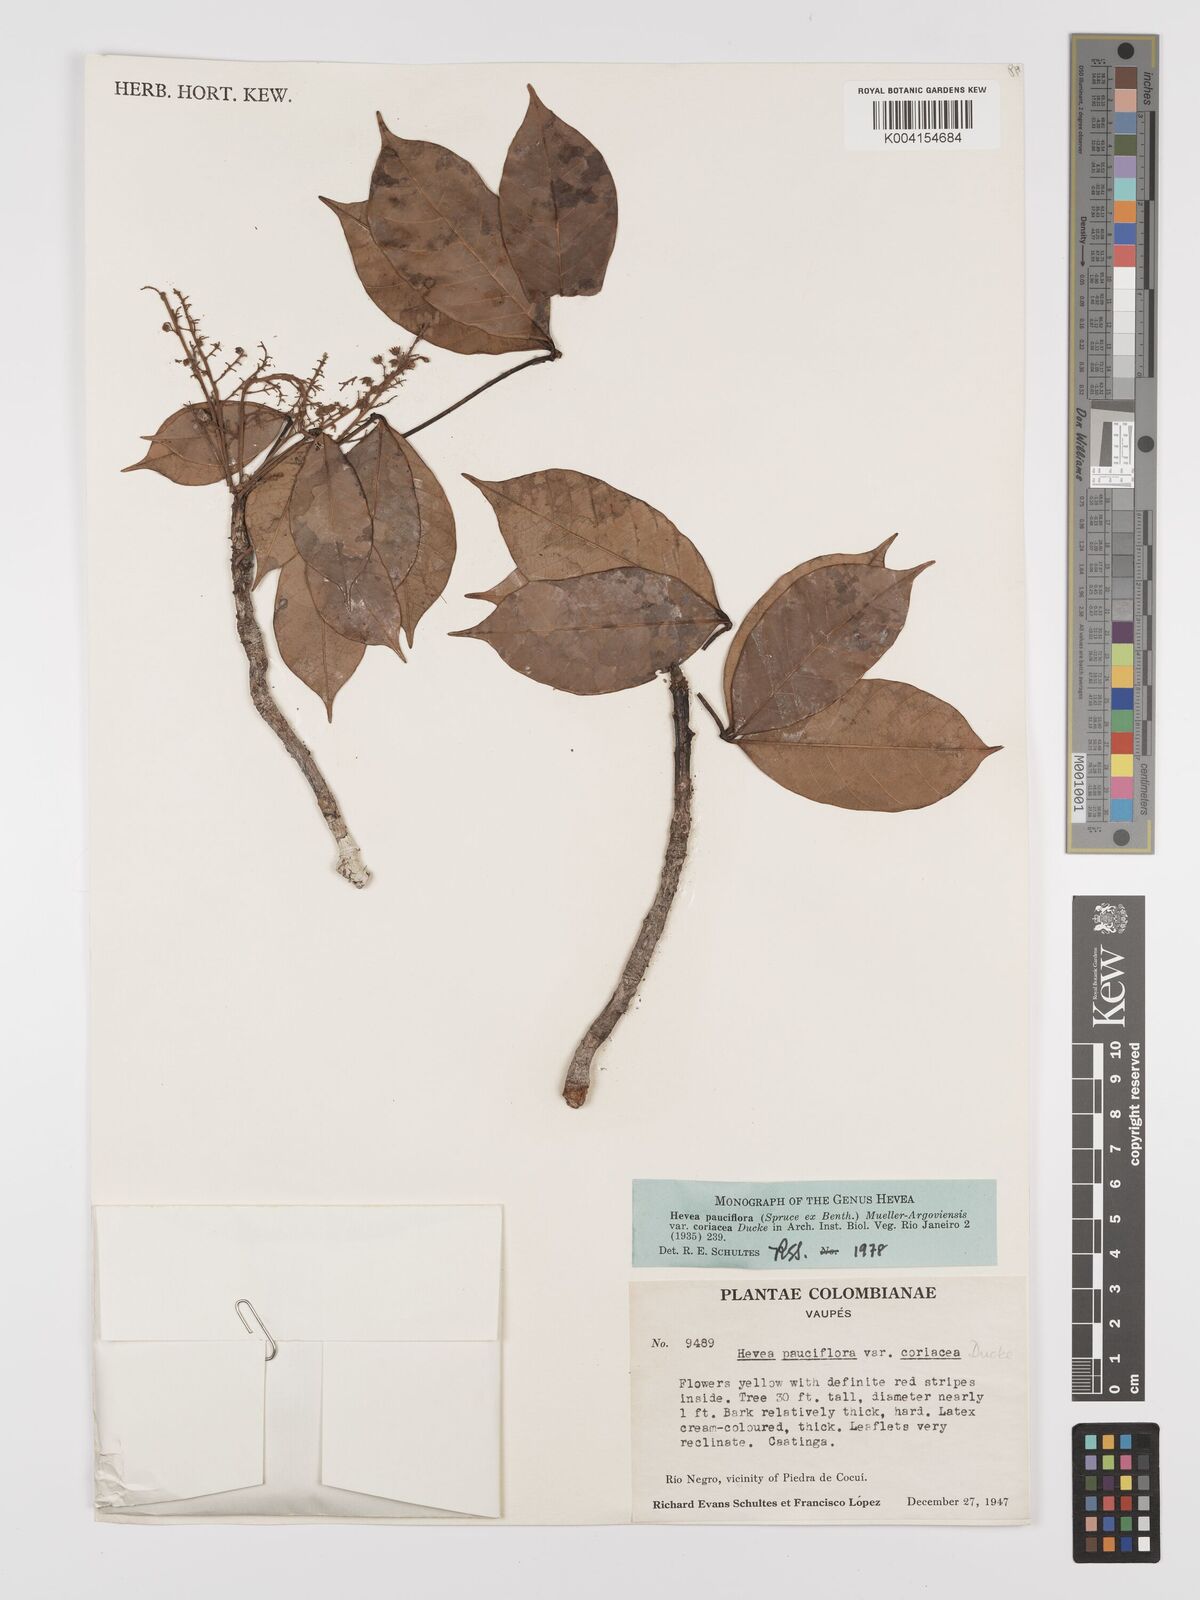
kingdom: Plantae
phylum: Tracheophyta
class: Magnoliopsida
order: Malpighiales
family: Euphorbiaceae
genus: Hevea
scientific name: Hevea pauciflora
